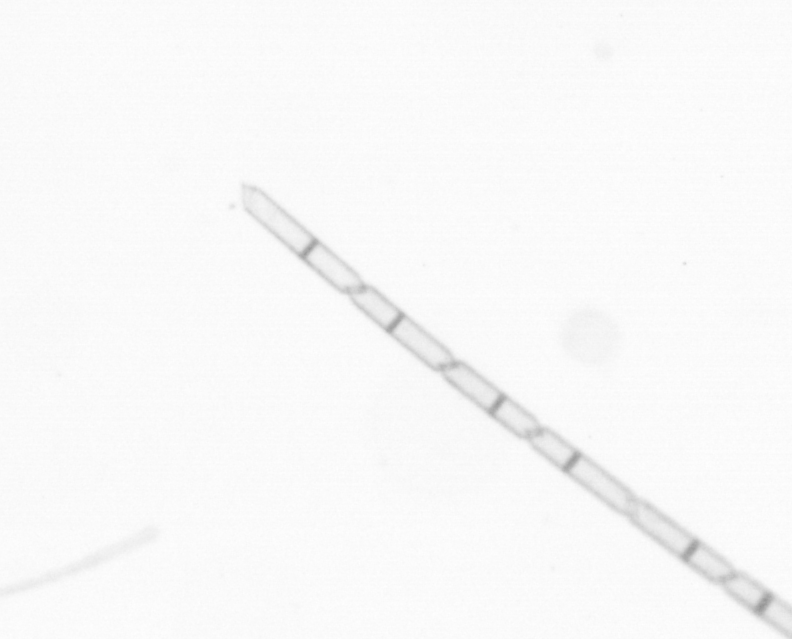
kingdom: Chromista
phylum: Ochrophyta
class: Bacillariophyceae
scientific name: Bacillariophyceae
